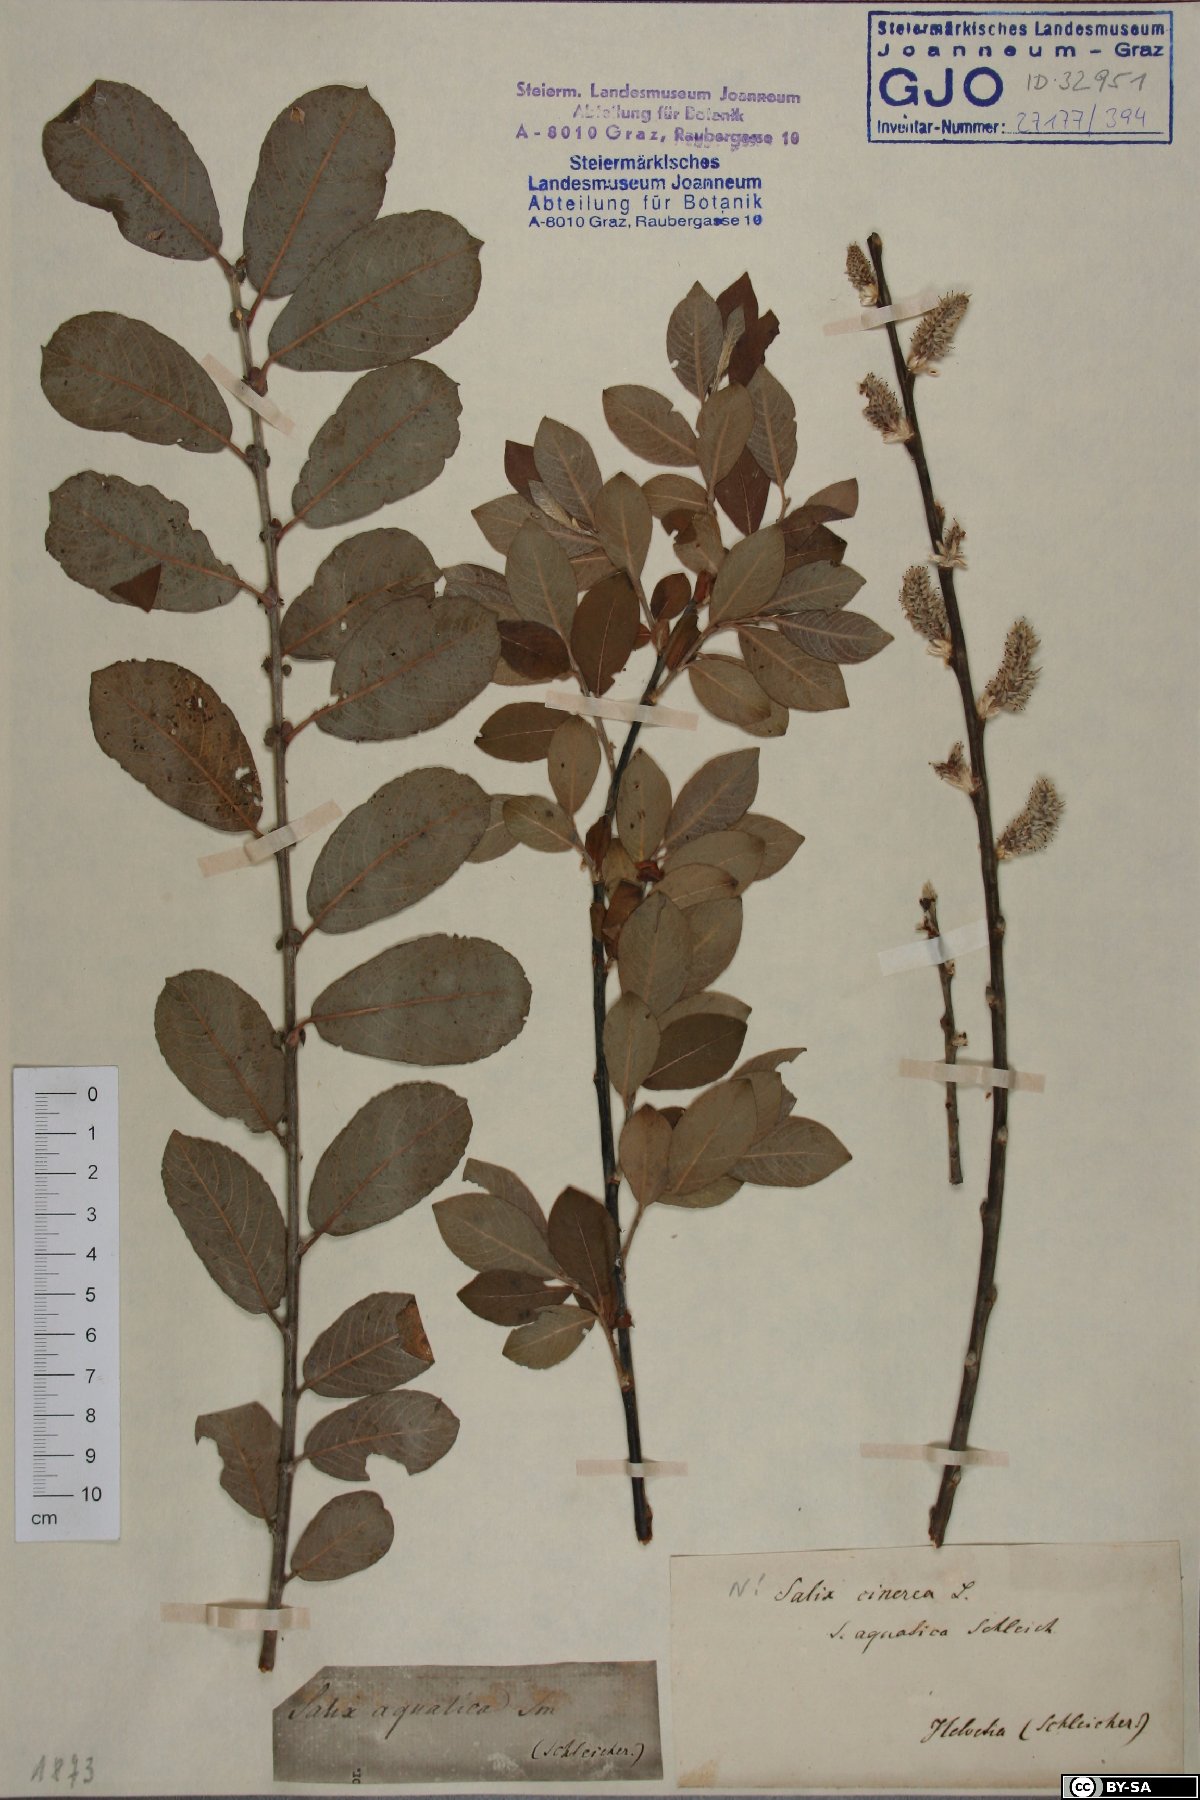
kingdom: Plantae
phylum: Tracheophyta
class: Magnoliopsida
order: Malpighiales
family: Salicaceae
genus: Salix
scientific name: Salix cinerea
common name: Common sallow
